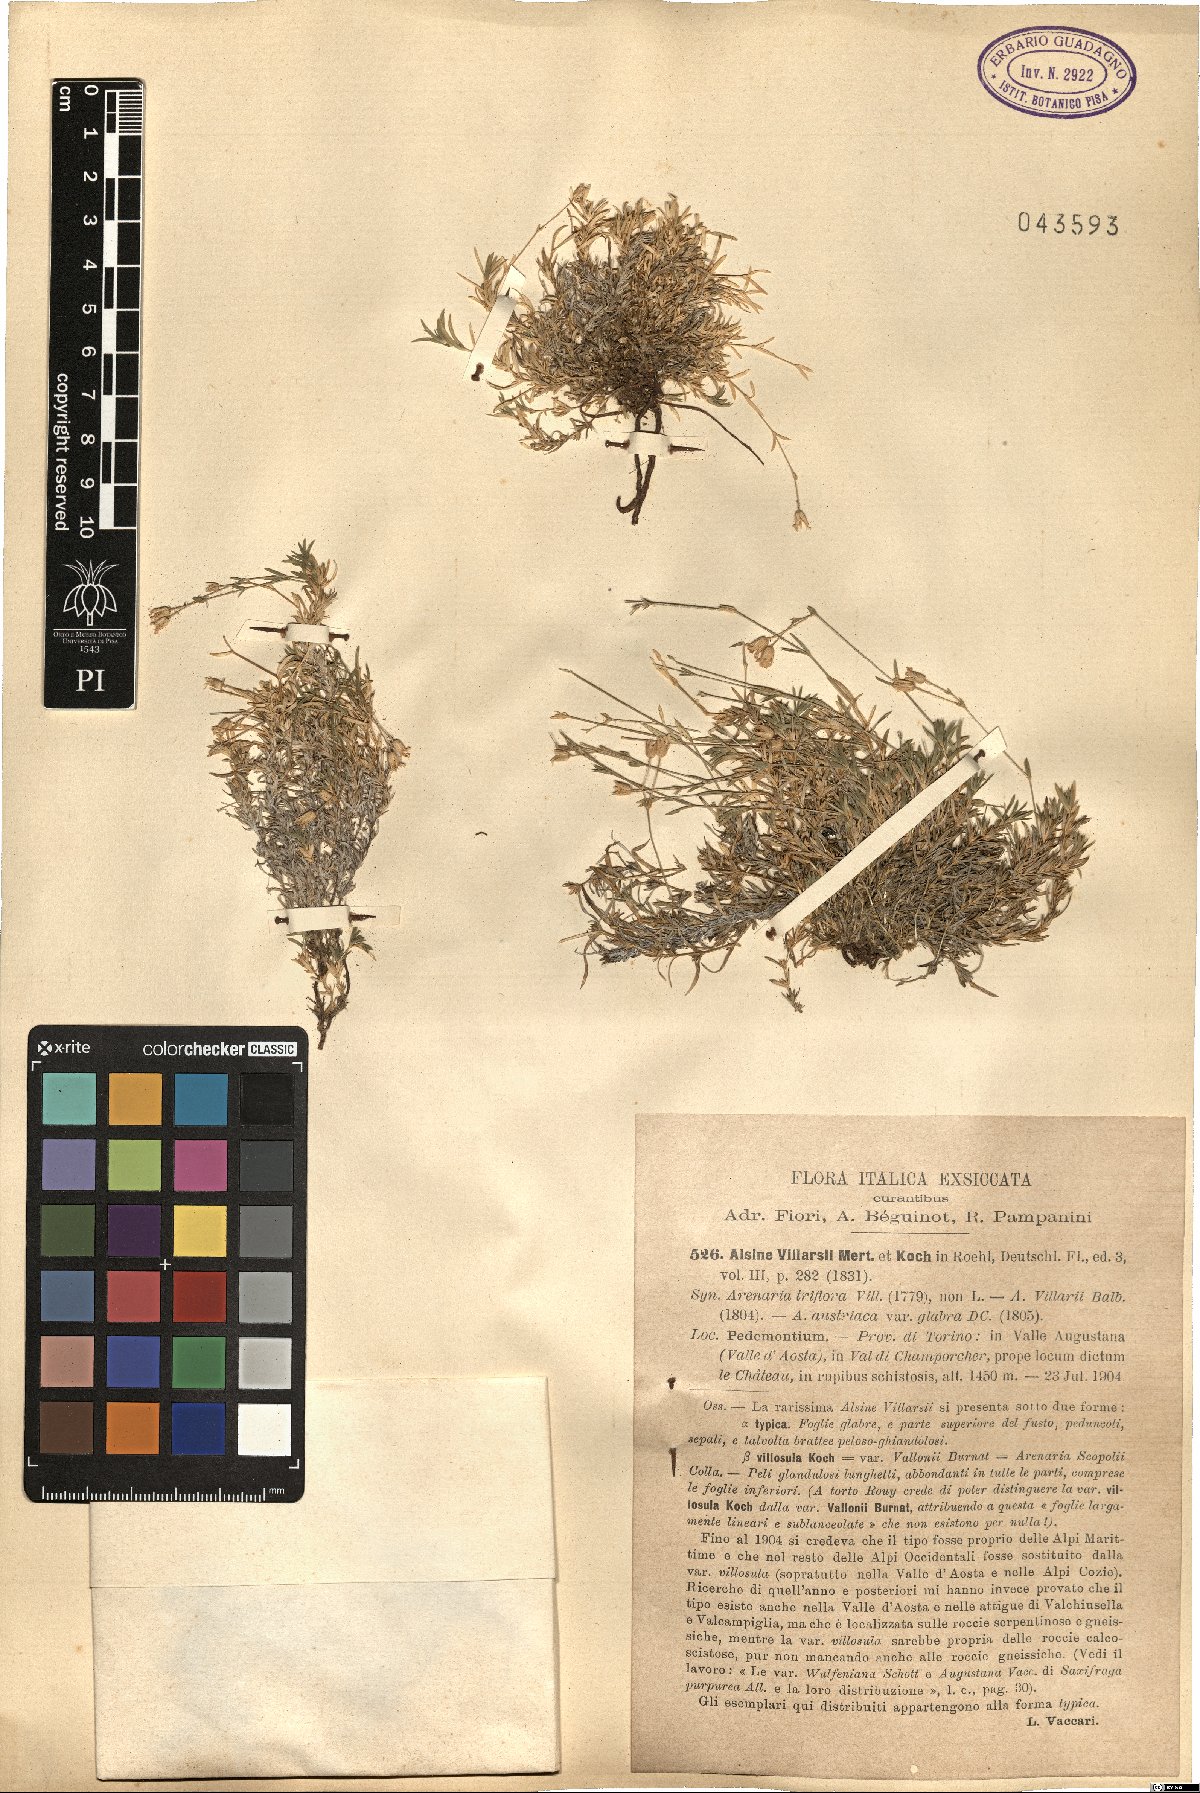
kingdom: Plantae
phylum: Tracheophyta
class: Magnoliopsida
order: Caryophyllales
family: Caryophyllaceae
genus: Sabulina
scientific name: Sabulina villarii
